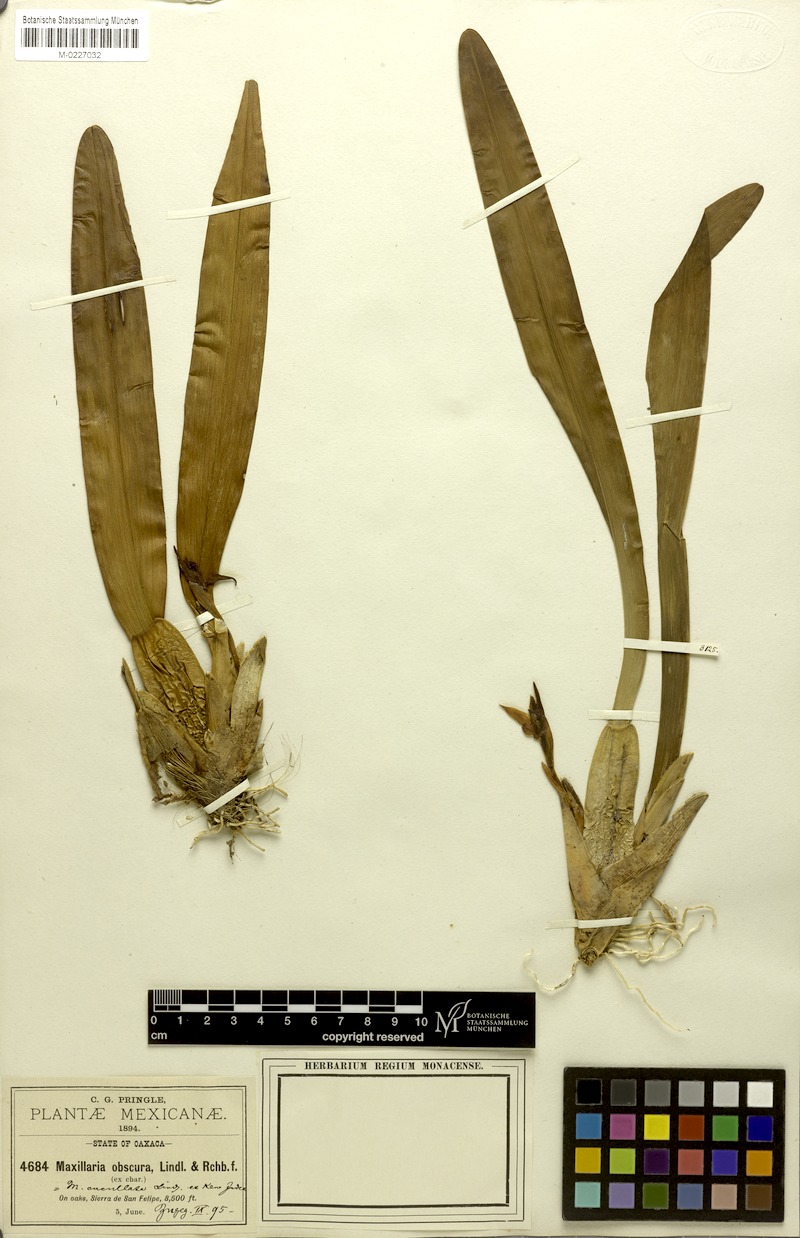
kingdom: Plantae
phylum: Tracheophyta
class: Liliopsida
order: Asparagales
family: Orchidaceae
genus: Maxillaria
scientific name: Maxillaria cucullata
